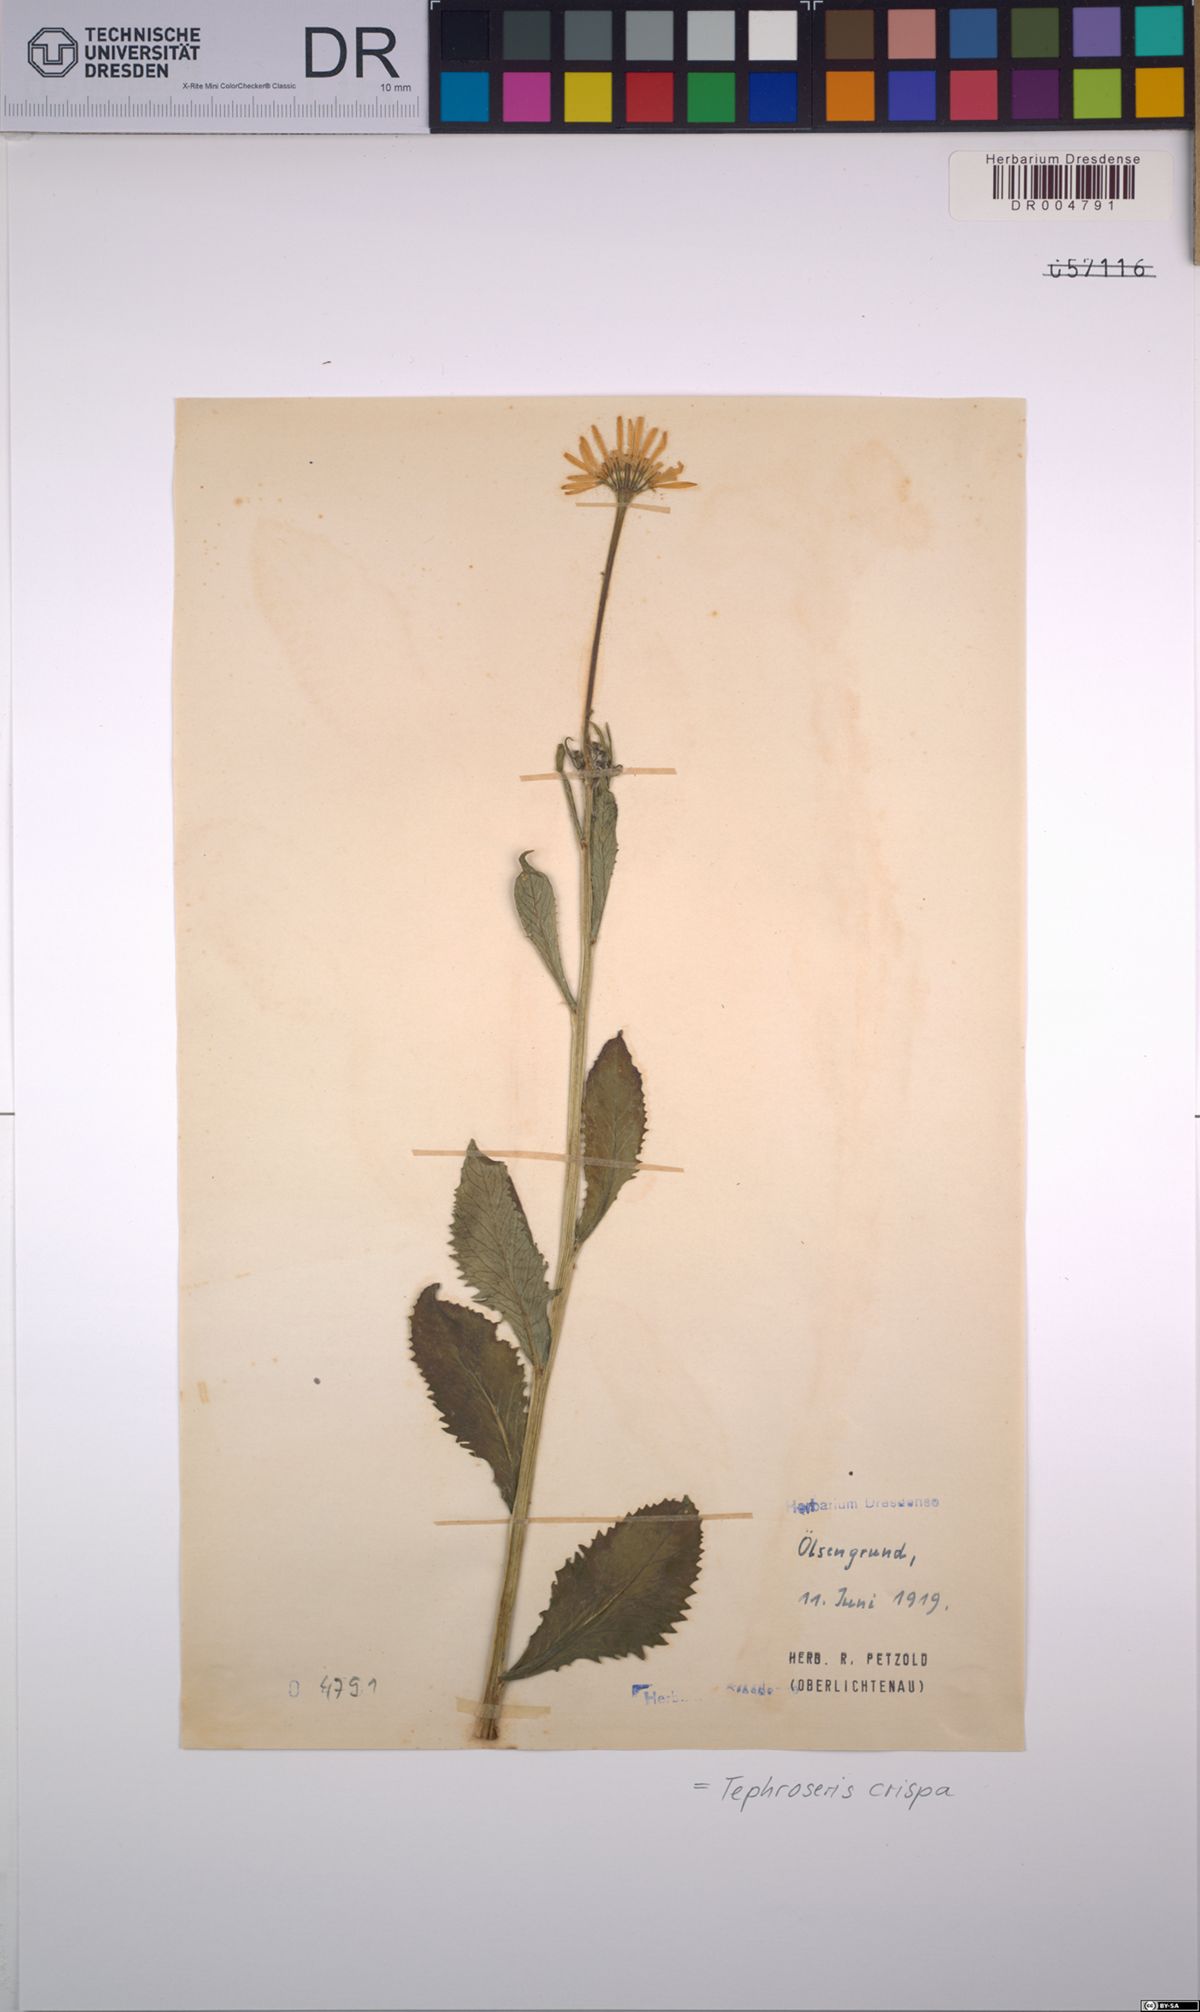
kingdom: Plantae
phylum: Tracheophyta
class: Magnoliopsida
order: Asterales
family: Asteraceae
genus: Tephroseris
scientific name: Tephroseris crispa
